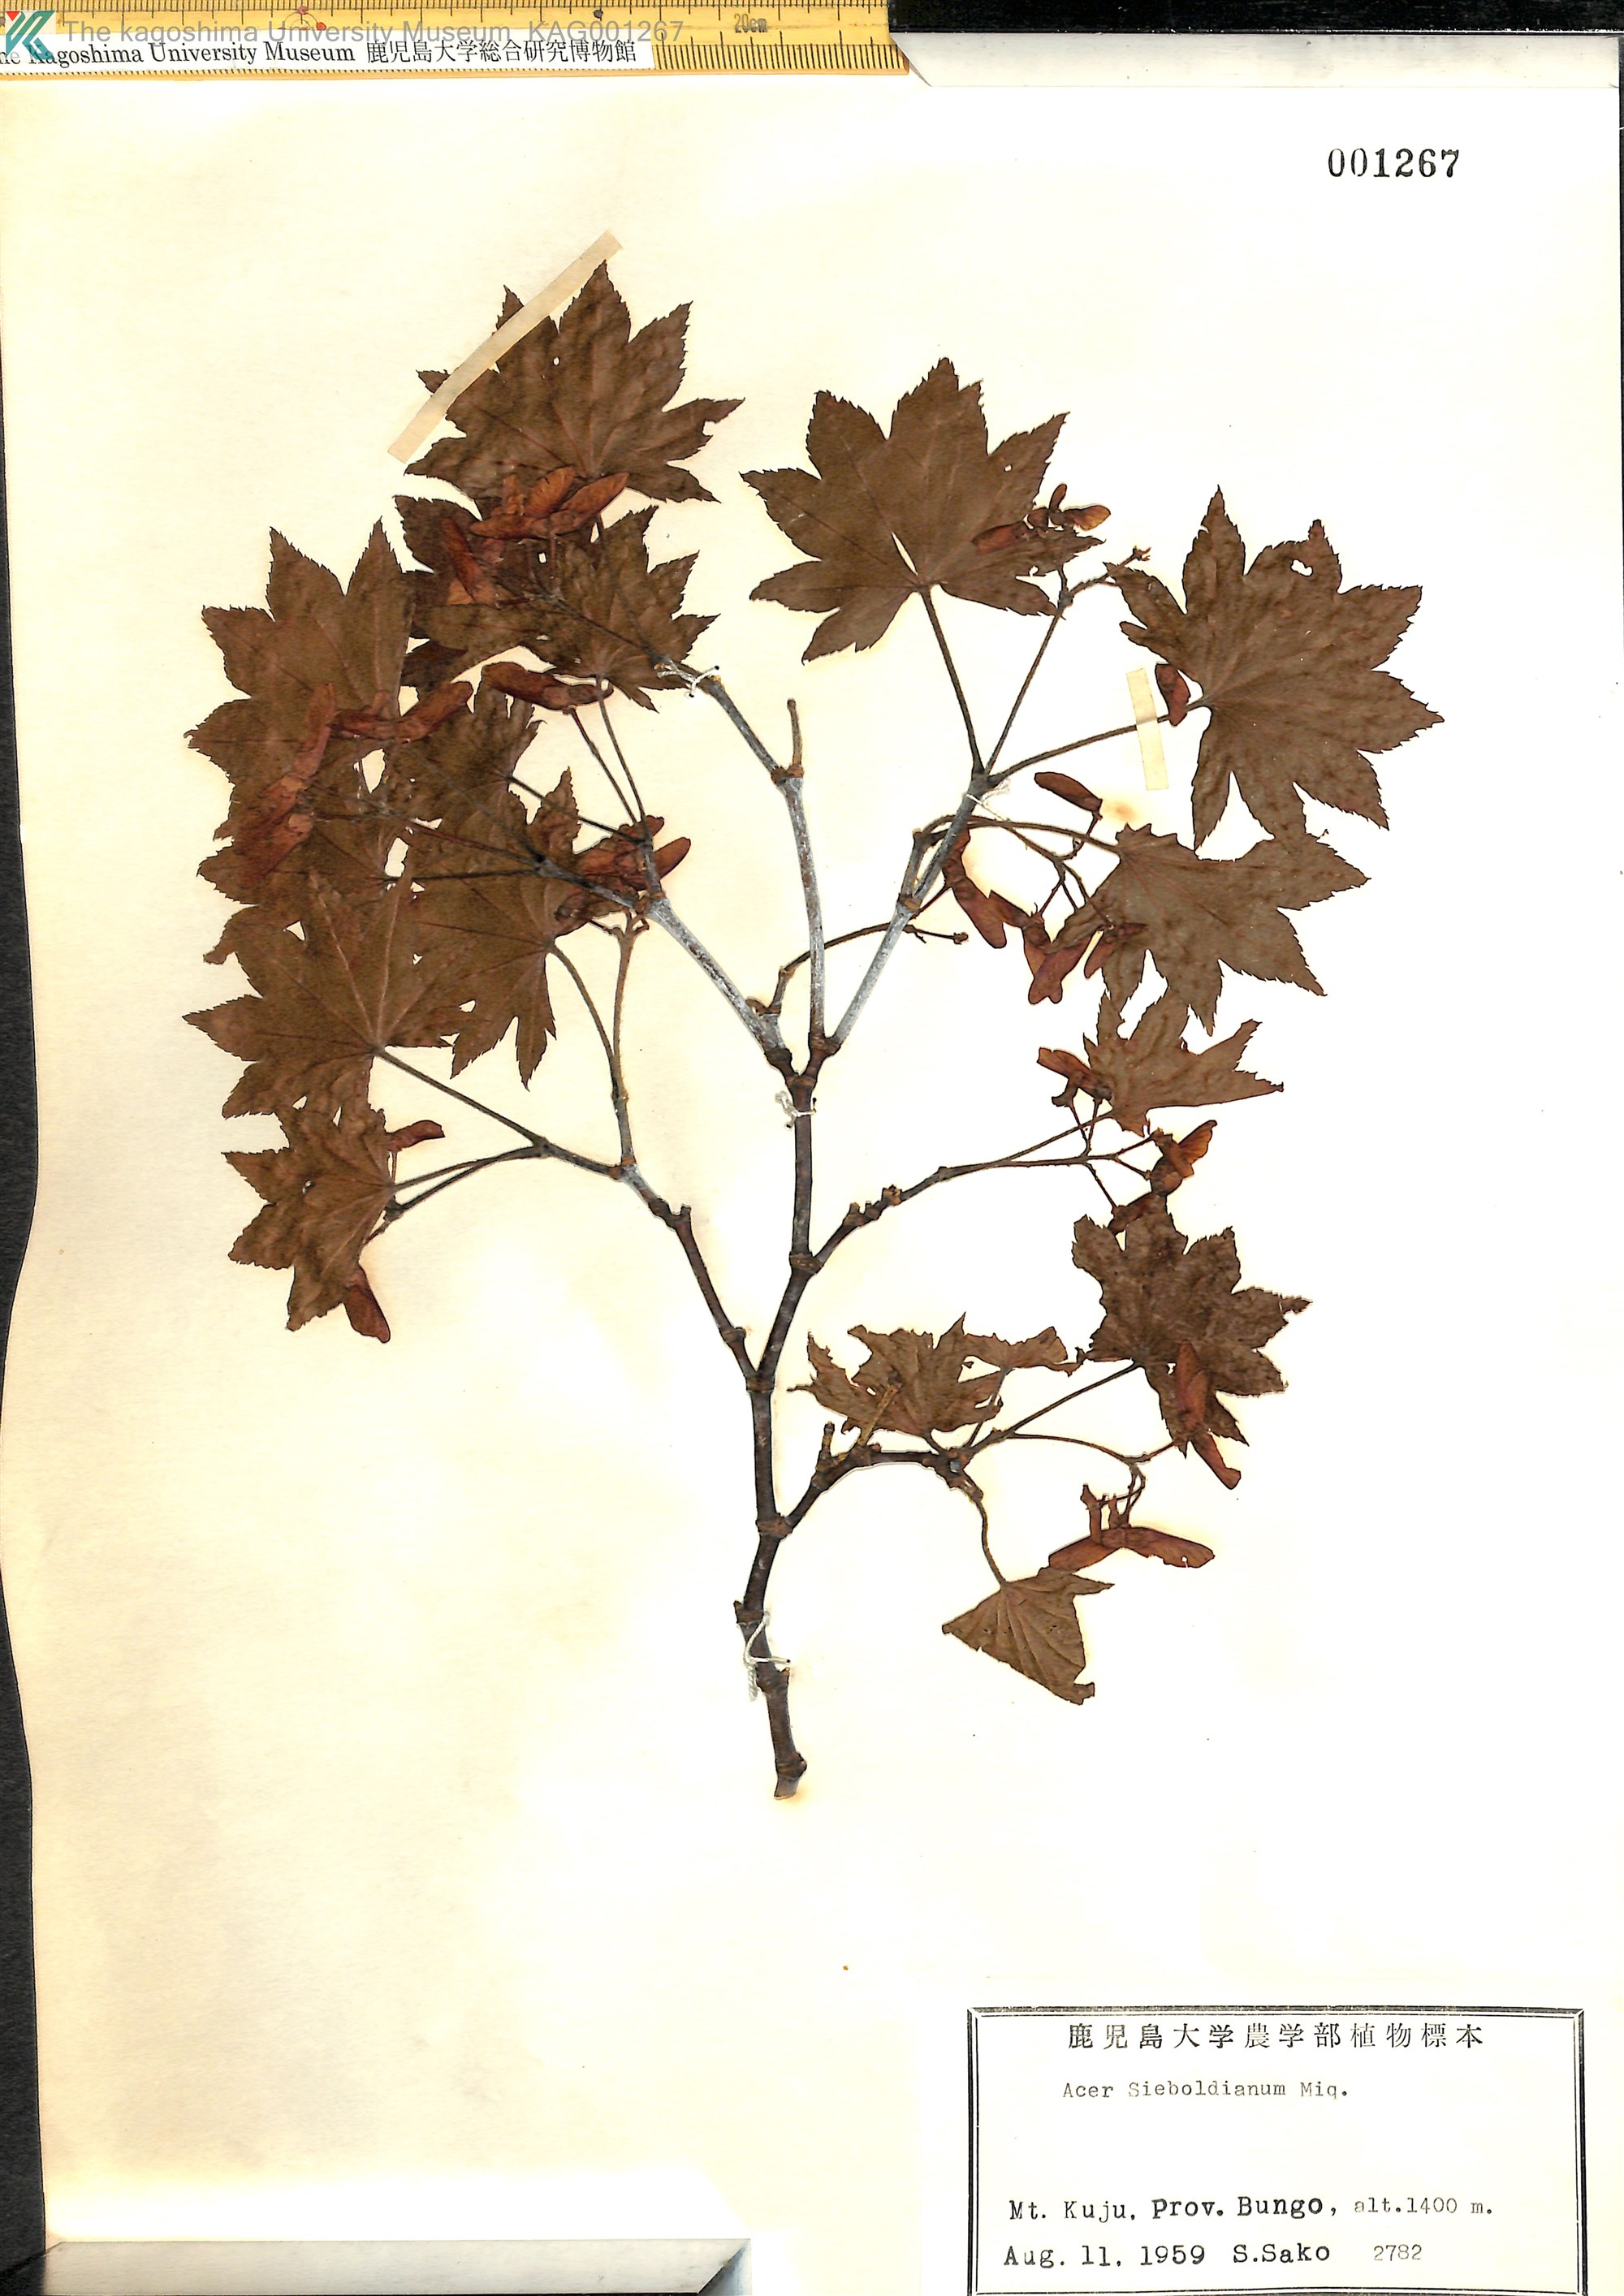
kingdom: Plantae
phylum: Tracheophyta
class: Magnoliopsida
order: Sapindales
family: Sapindaceae
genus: Acer
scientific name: Acer sieboldianum
